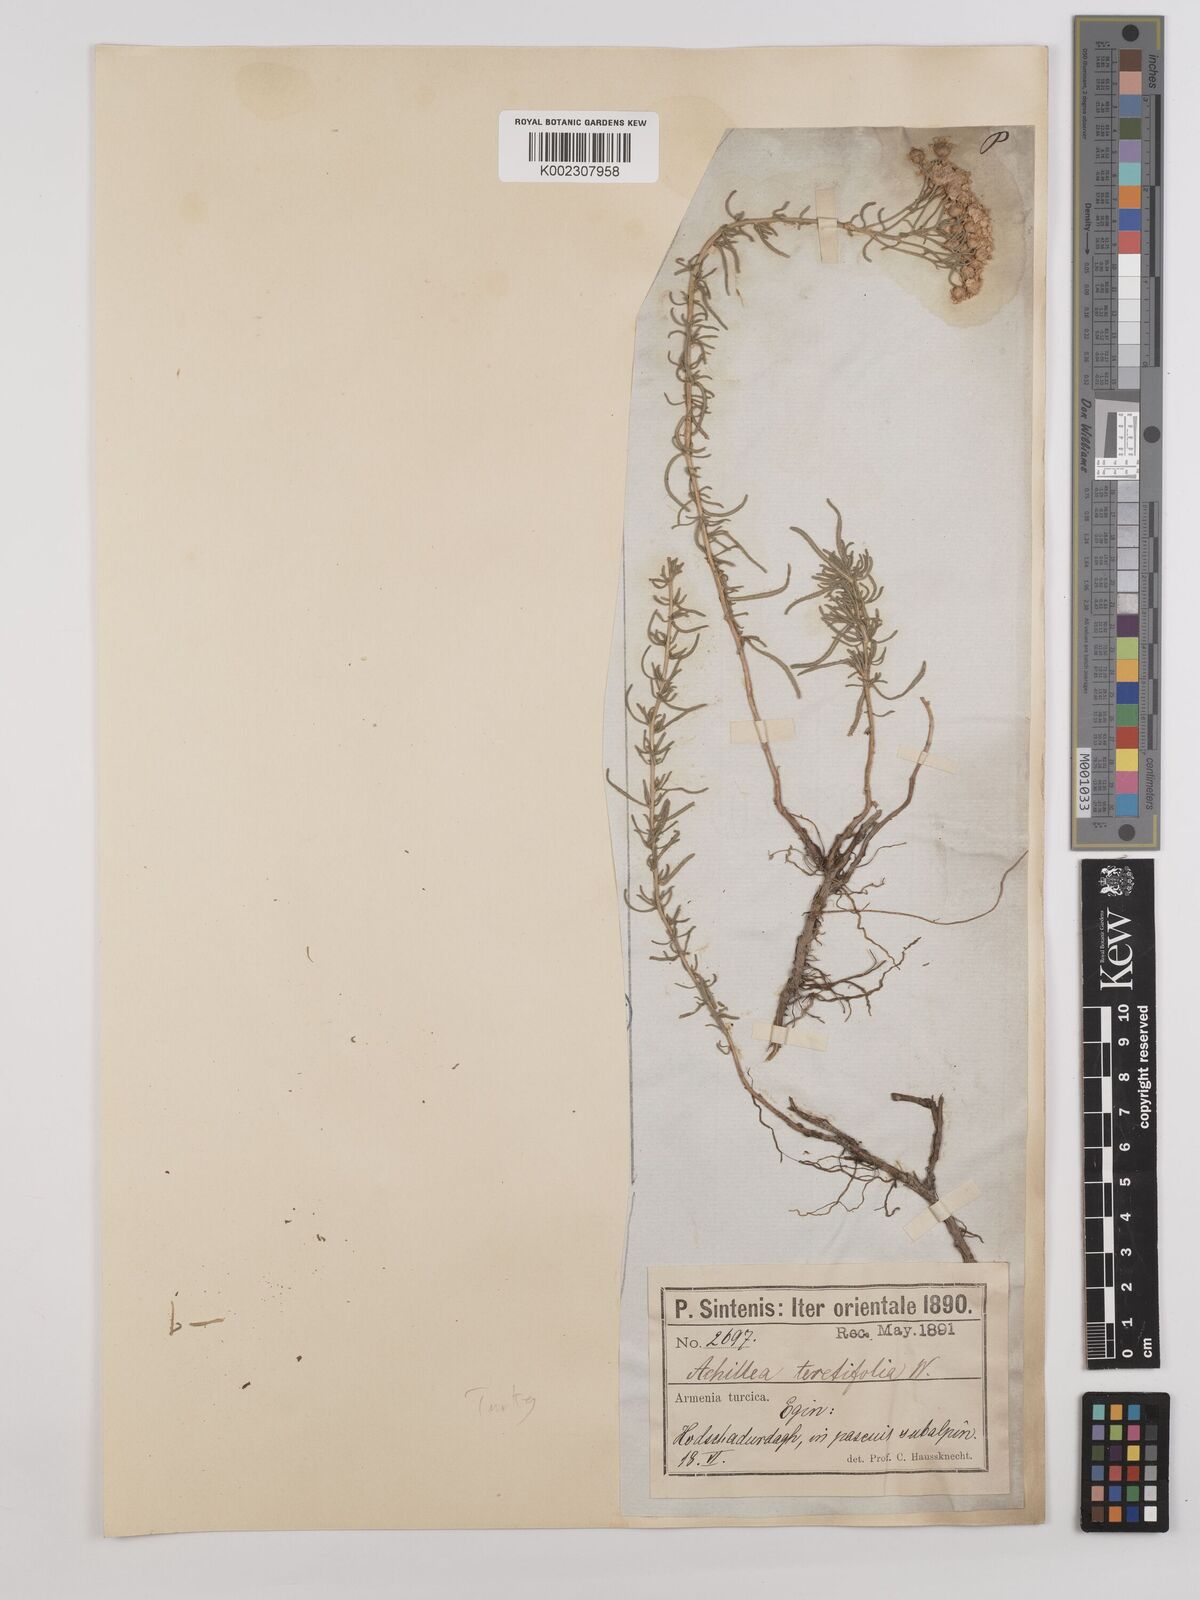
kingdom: Plantae
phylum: Tracheophyta
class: Magnoliopsida
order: Asterales
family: Asteraceae
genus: Achillea
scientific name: Achillea wilhelmsii
